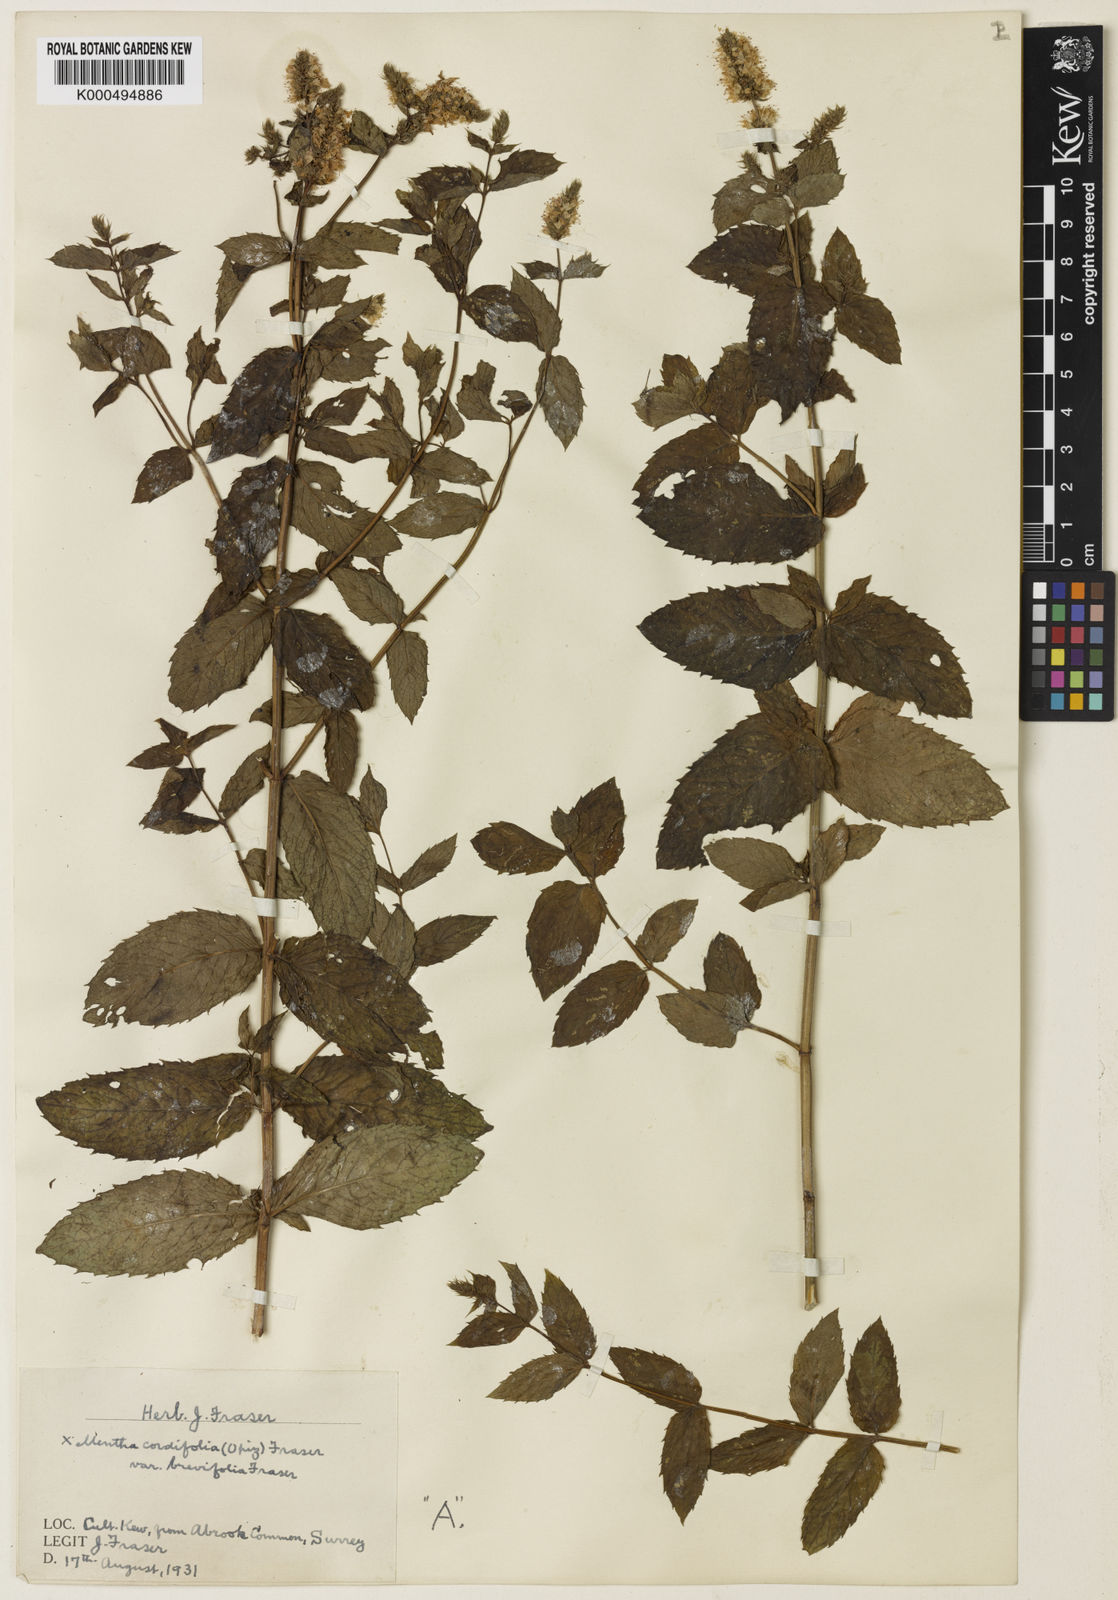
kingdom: Plantae
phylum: Tracheophyta
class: Magnoliopsida
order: Lamiales
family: Lamiaceae
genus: Mentha
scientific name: Mentha villosa
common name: Apple mint
